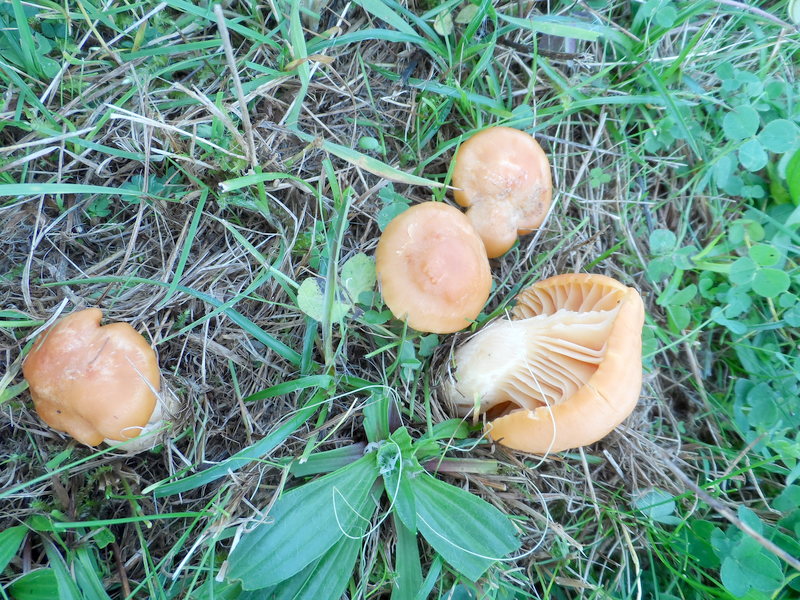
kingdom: Fungi
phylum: Basidiomycota
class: Agaricomycetes
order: Agaricales
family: Hygrophoraceae
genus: Cuphophyllus
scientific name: Cuphophyllus pratensis
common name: Meadow waxcap
